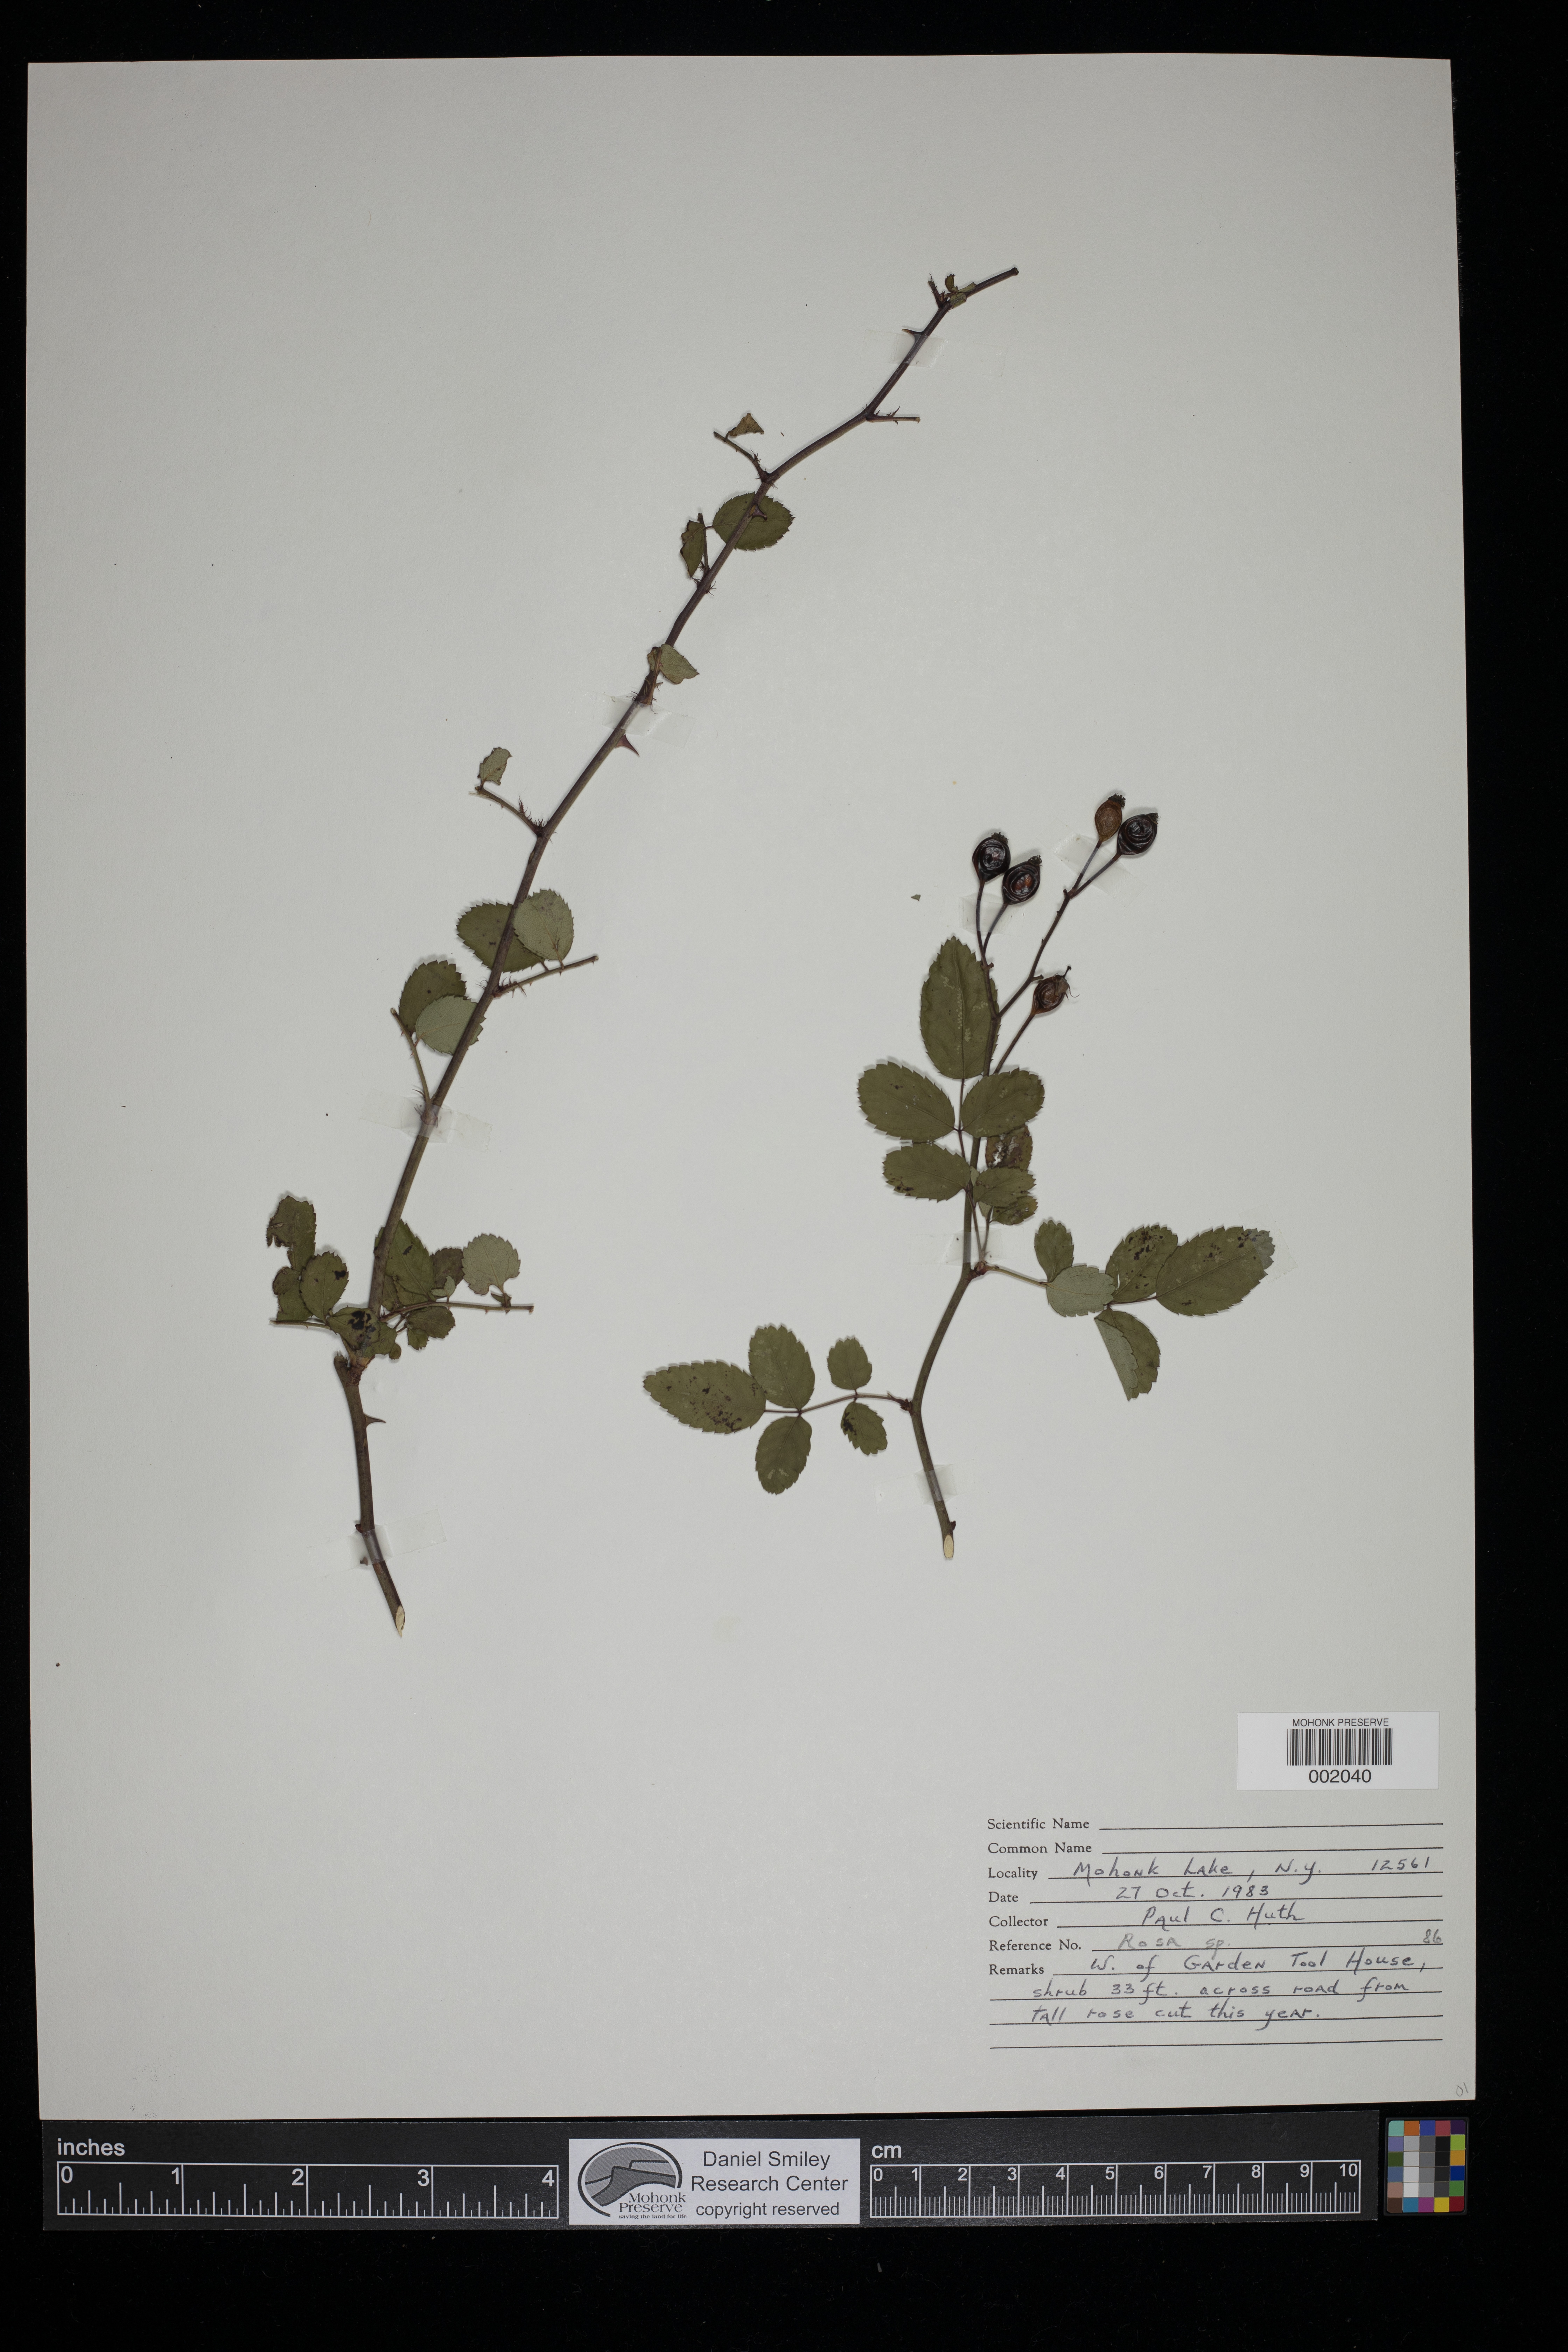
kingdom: Plantae
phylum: Tracheophyta
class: Magnoliopsida
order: Rosales
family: Rosaceae
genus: Rosa
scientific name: Rosa
